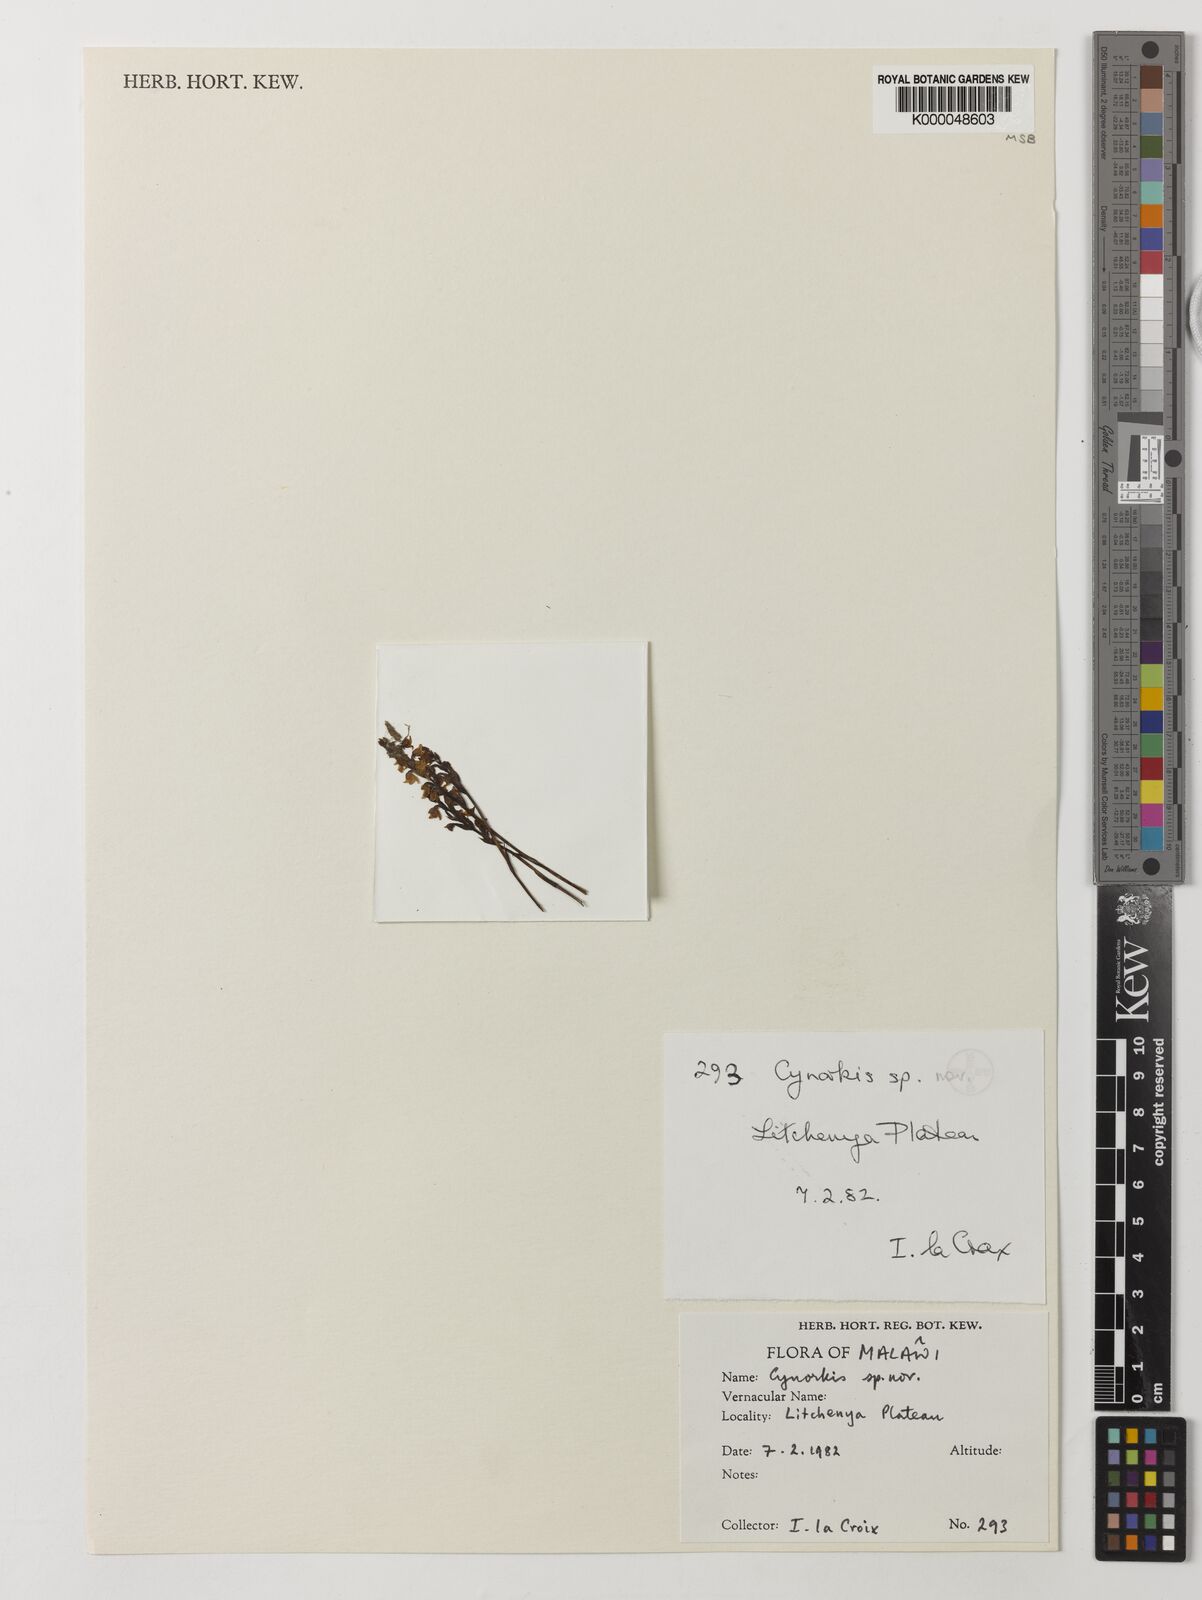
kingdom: Plantae
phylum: Tracheophyta
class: Liliopsida
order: Asparagales
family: Orchidaceae
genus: Cynorkis
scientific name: Cynorkis brevicalcar
